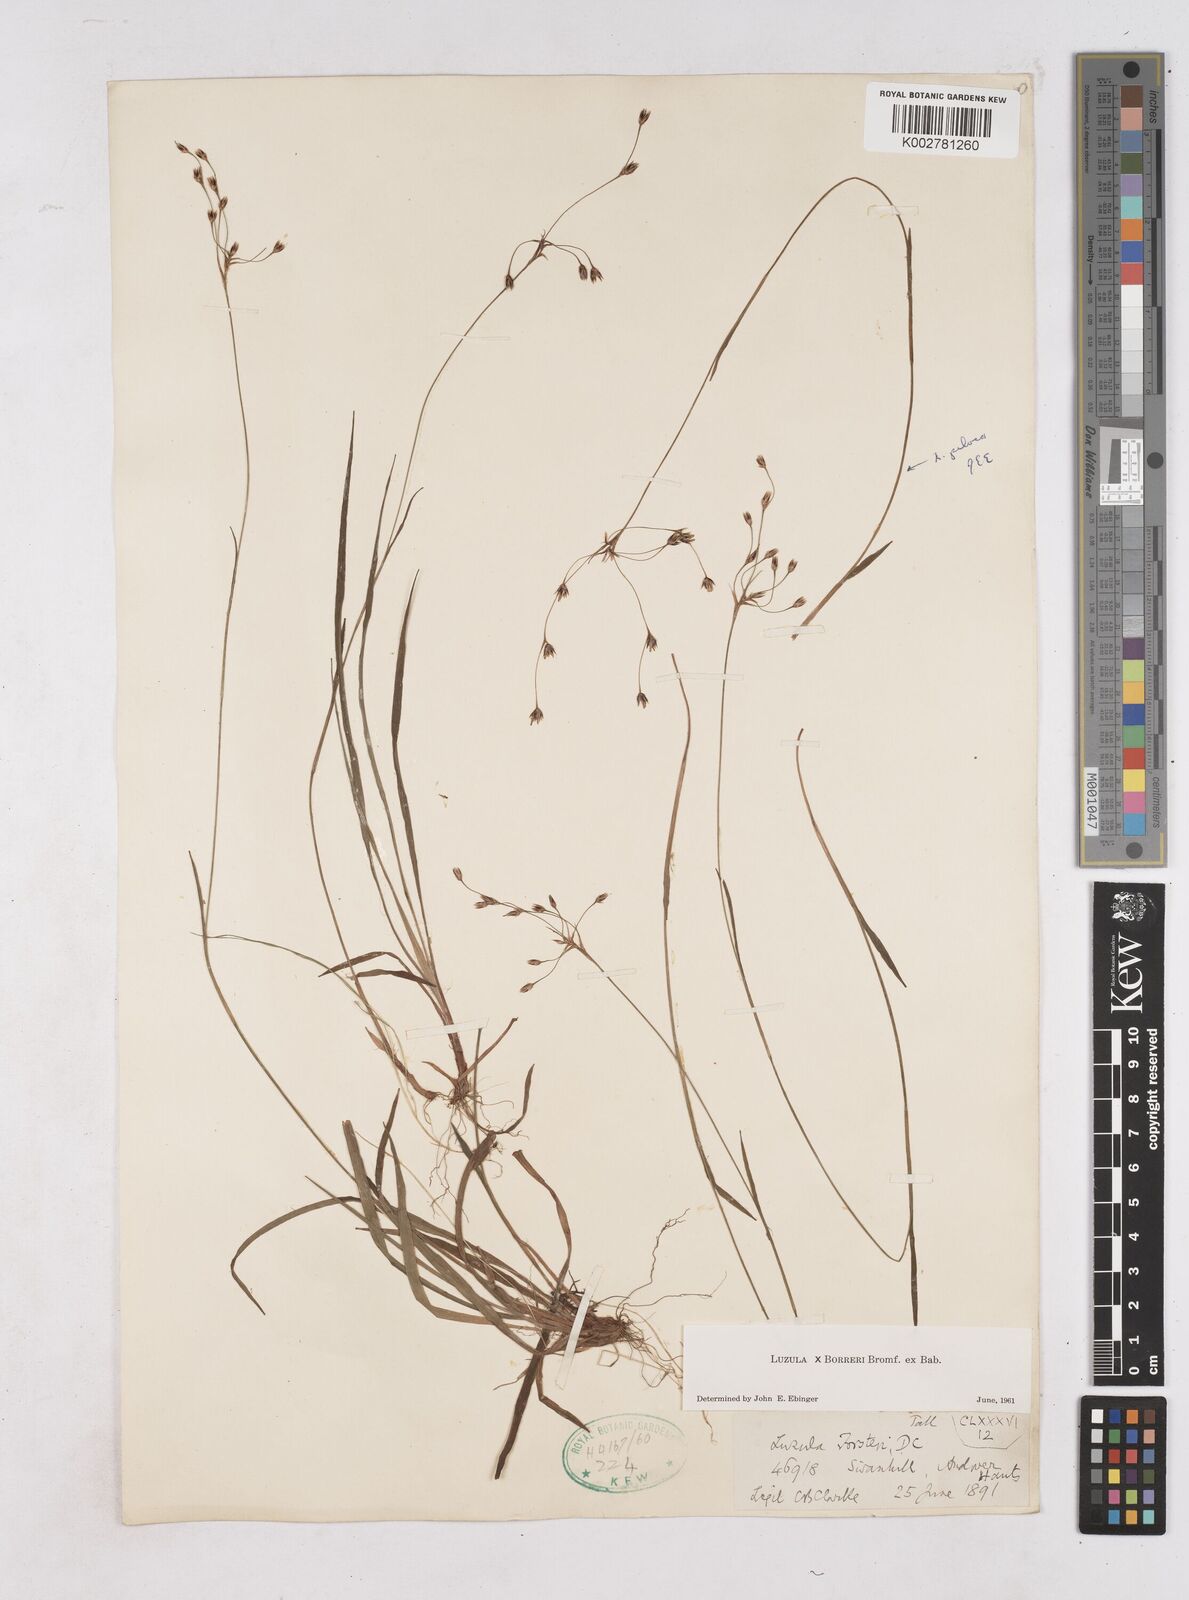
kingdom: Plantae
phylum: Tracheophyta
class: Liliopsida
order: Poales
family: Juncaceae
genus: Luzula
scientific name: Luzula forsteri
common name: Southern wood-rush
